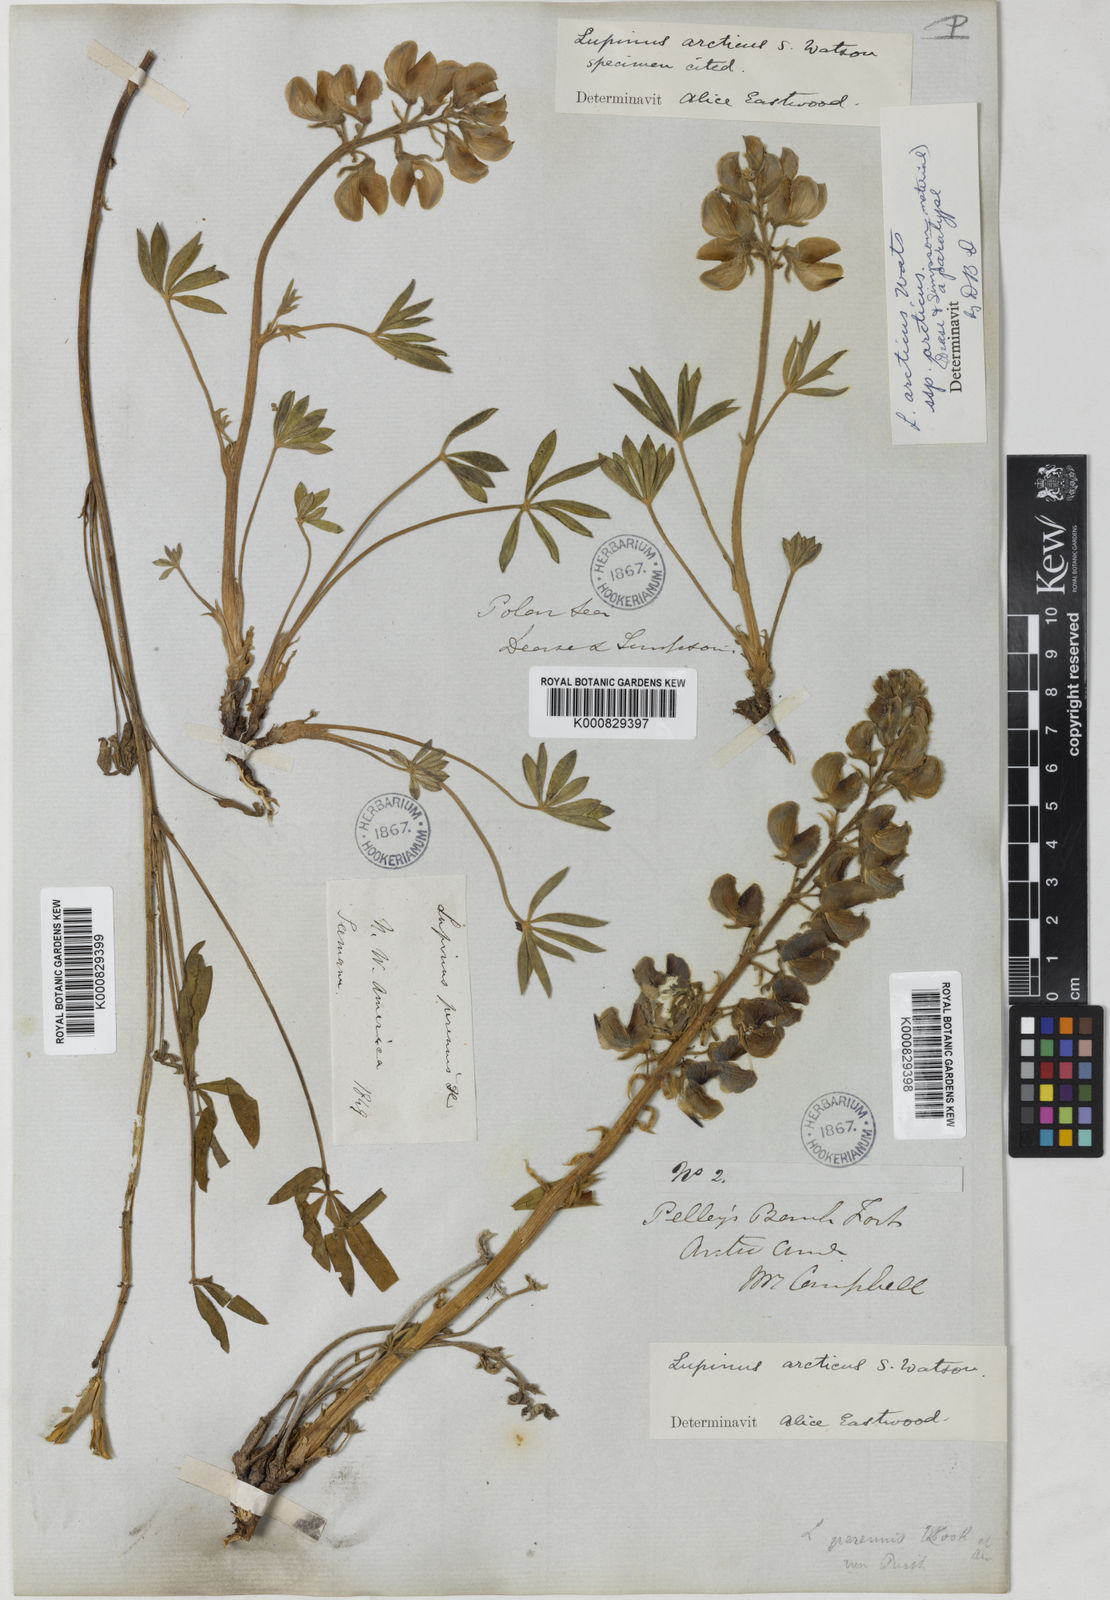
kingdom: Plantae
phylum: Tracheophyta
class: Magnoliopsida
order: Fabales
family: Fabaceae
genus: Lupinus
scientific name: Lupinus arcticus
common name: Arctic lupine
